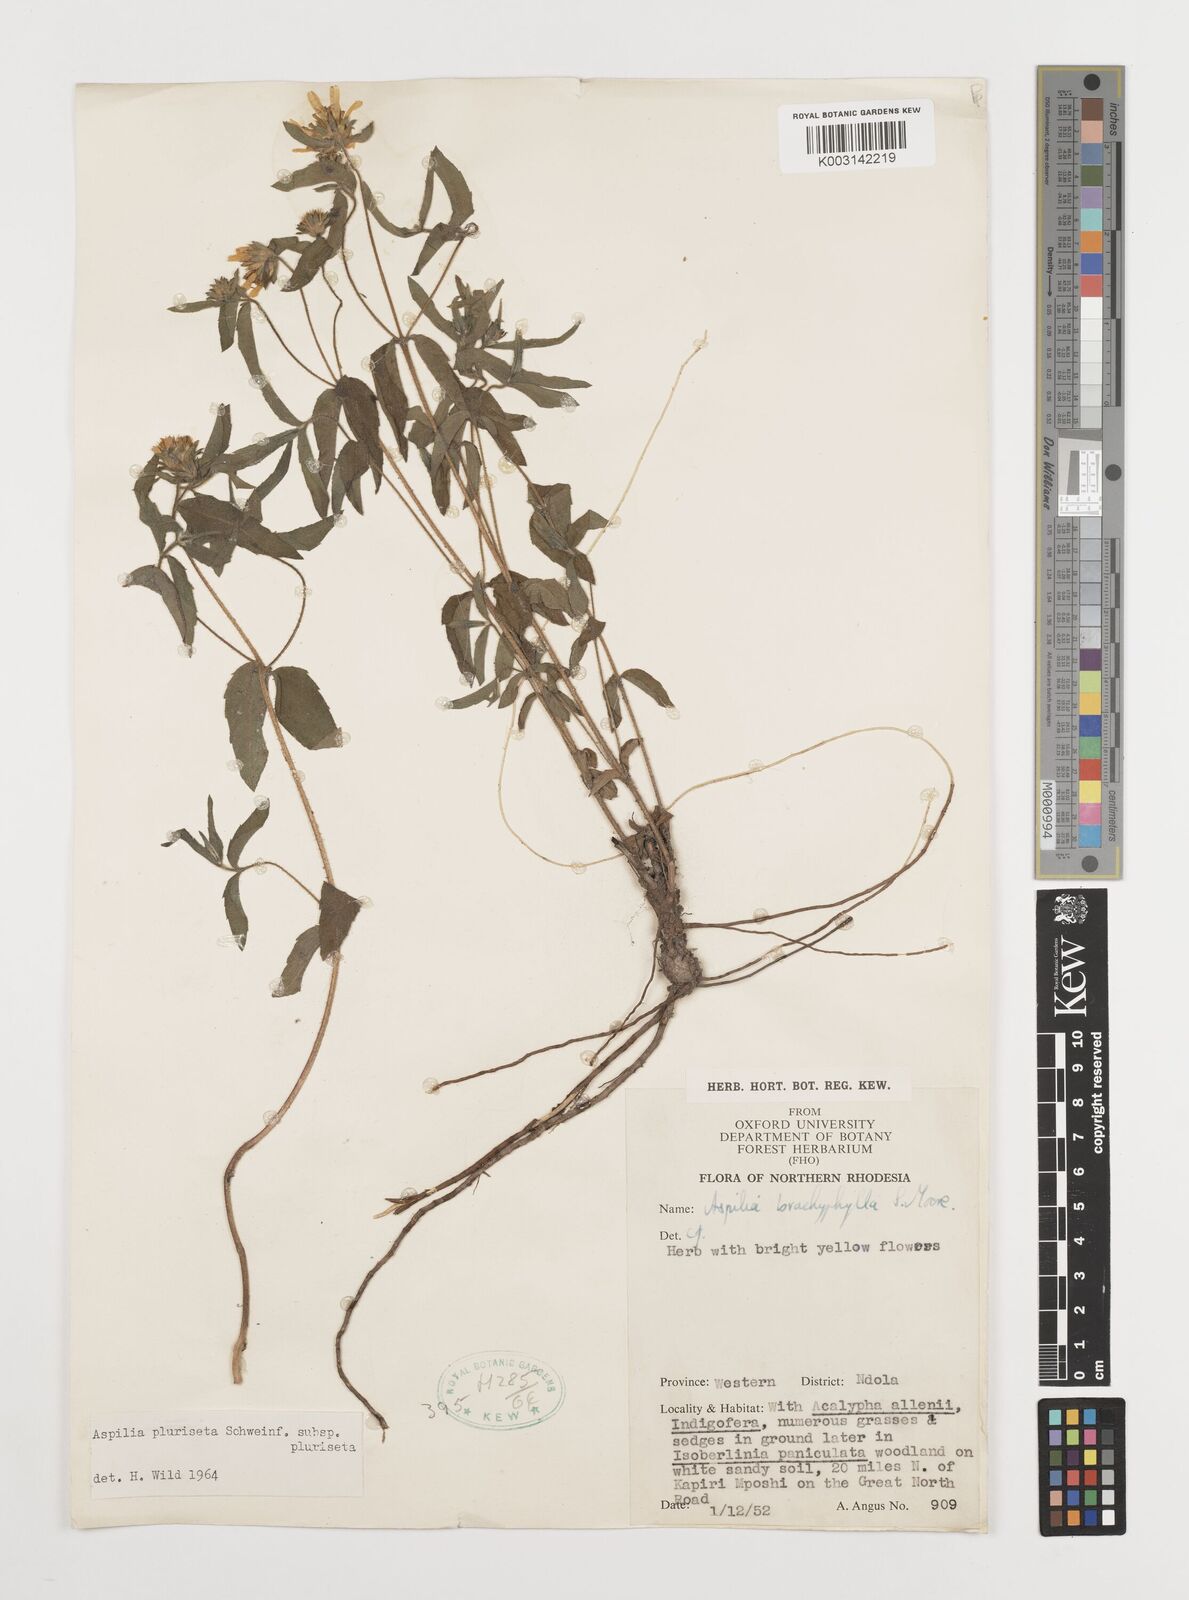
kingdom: Plantae
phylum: Tracheophyta
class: Magnoliopsida
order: Asterales
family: Asteraceae
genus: Aspilia
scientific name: Aspilia pluriseta
